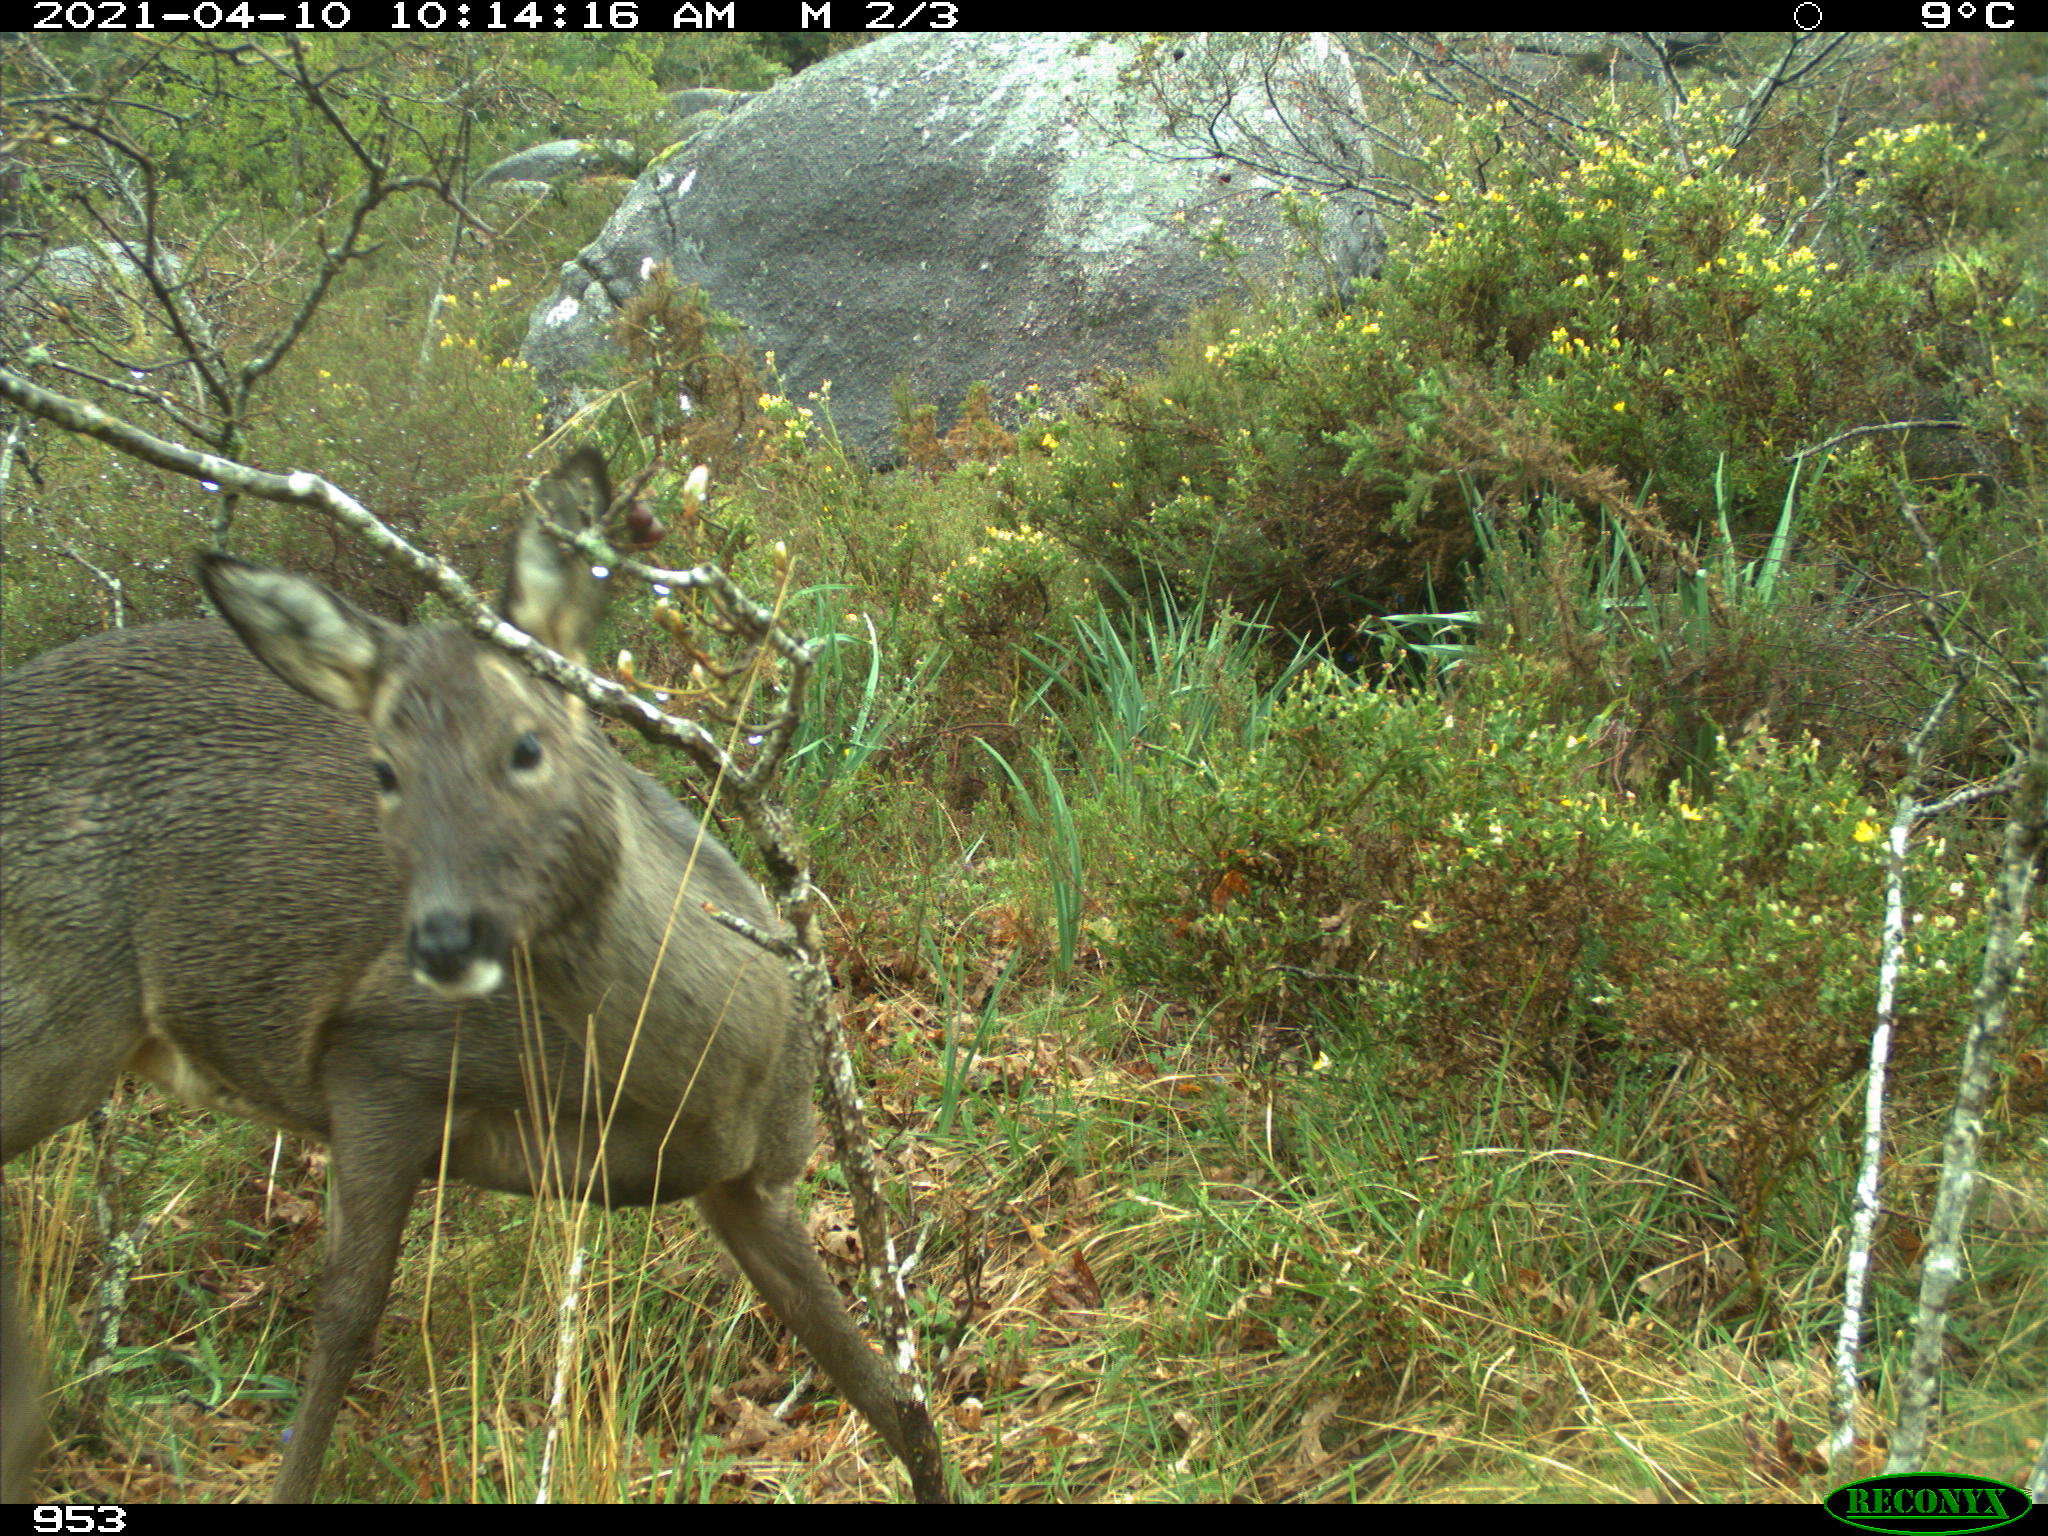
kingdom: Animalia
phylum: Chordata
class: Mammalia
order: Artiodactyla
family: Cervidae
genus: Capreolus
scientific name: Capreolus capreolus
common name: Western roe deer
